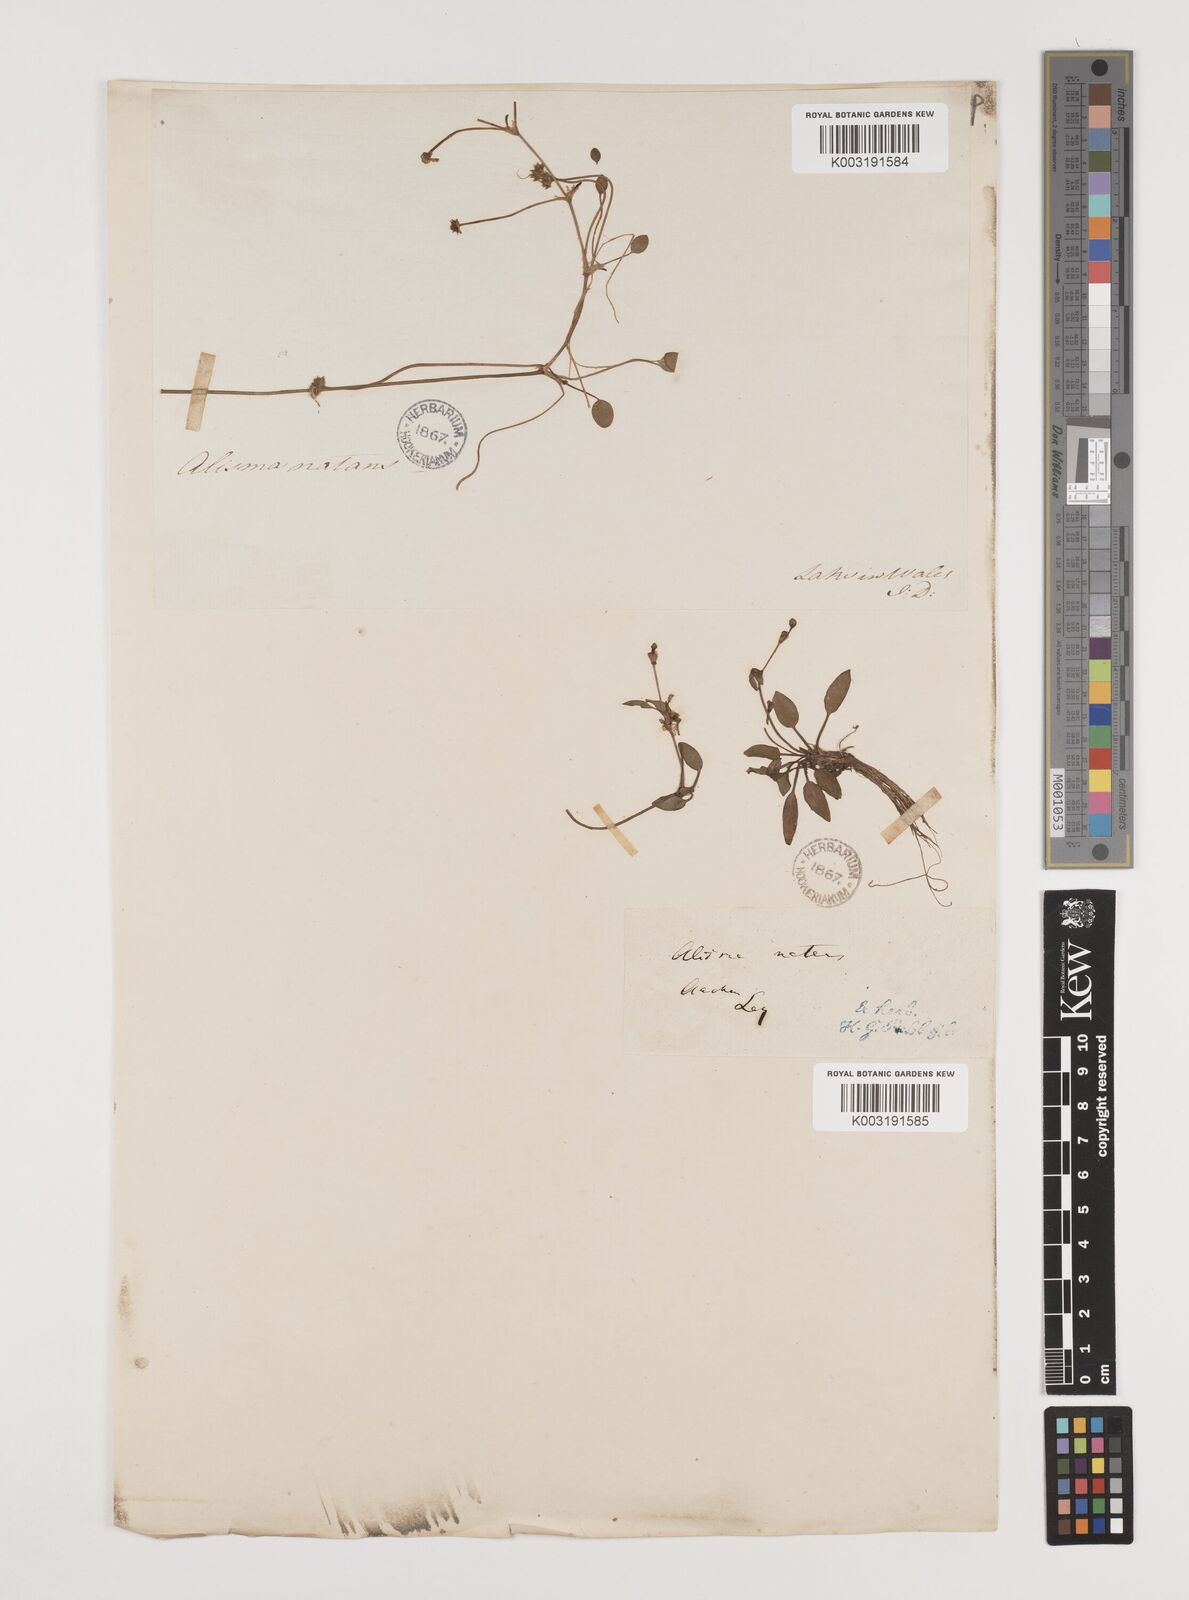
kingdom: Plantae
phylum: Tracheophyta
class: Liliopsida
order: Alismatales
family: Alismataceae
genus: Luronium
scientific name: Luronium natans
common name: Floating water-plantain
